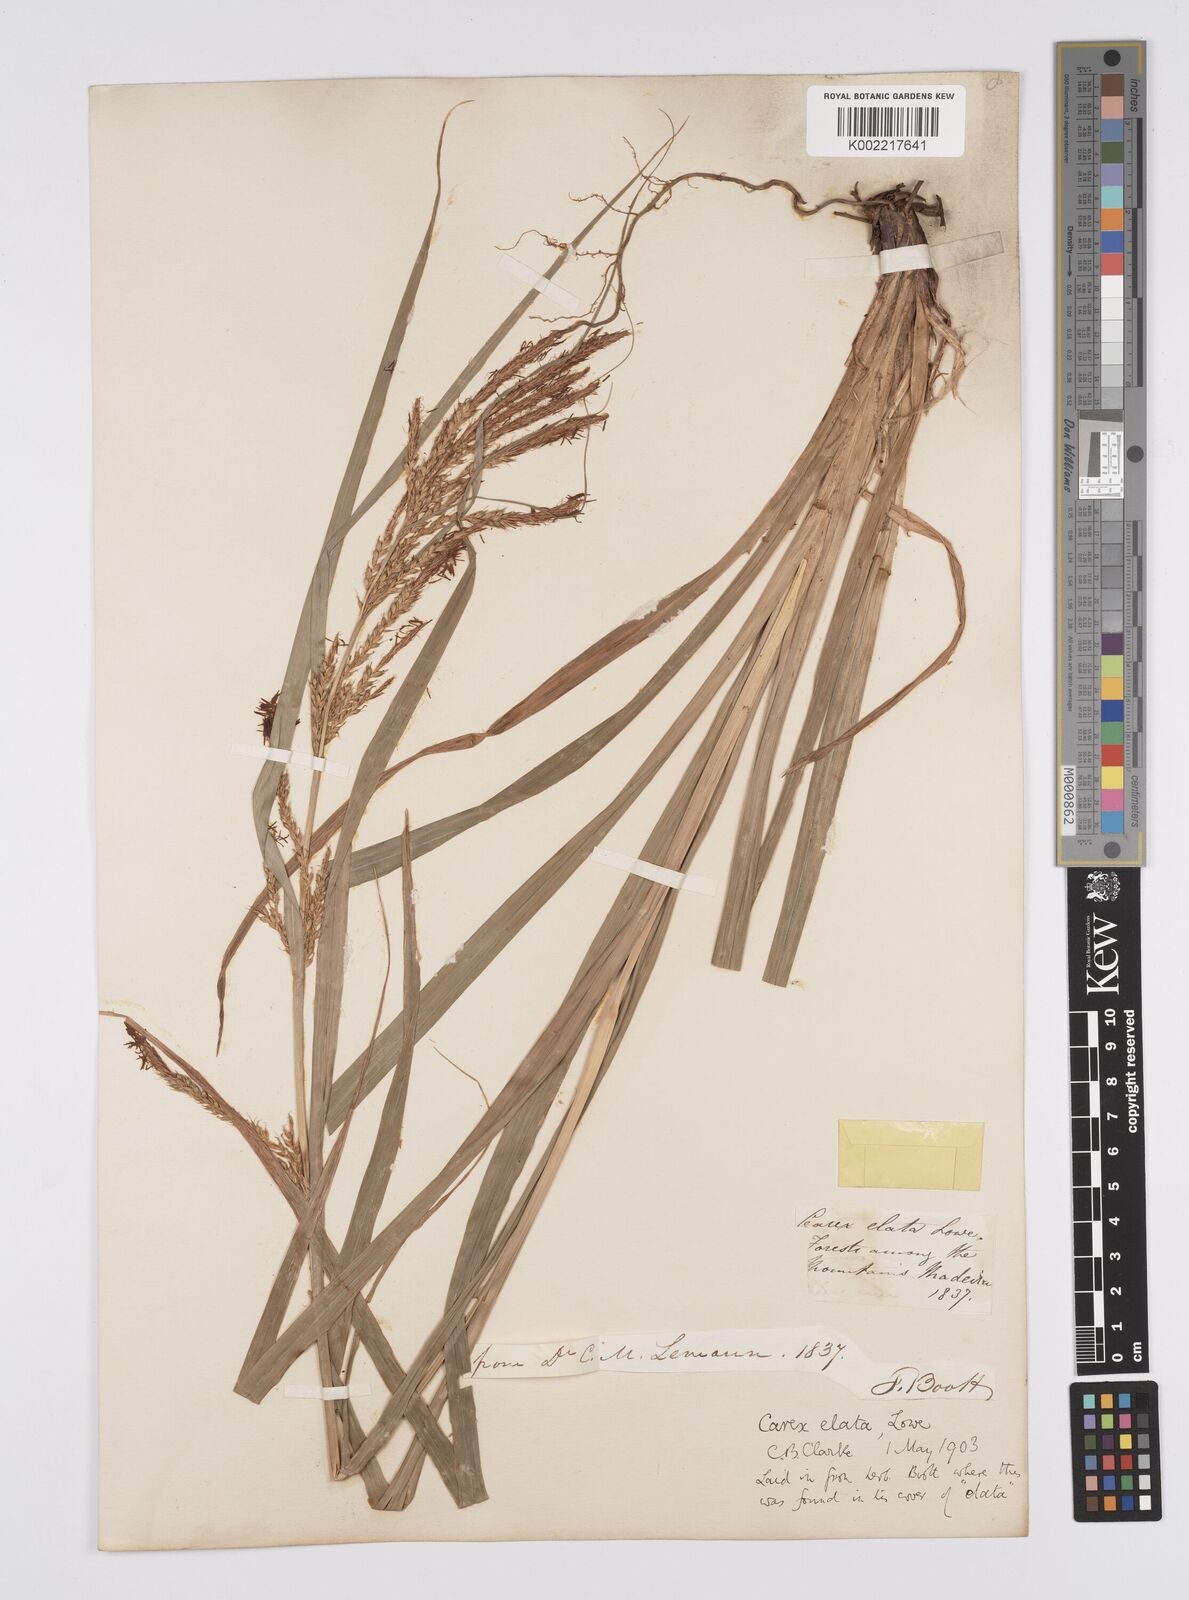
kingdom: Plantae
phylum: Tracheophyta
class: Liliopsida
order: Poales
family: Cyperaceae
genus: Carex
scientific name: Carex lowei
